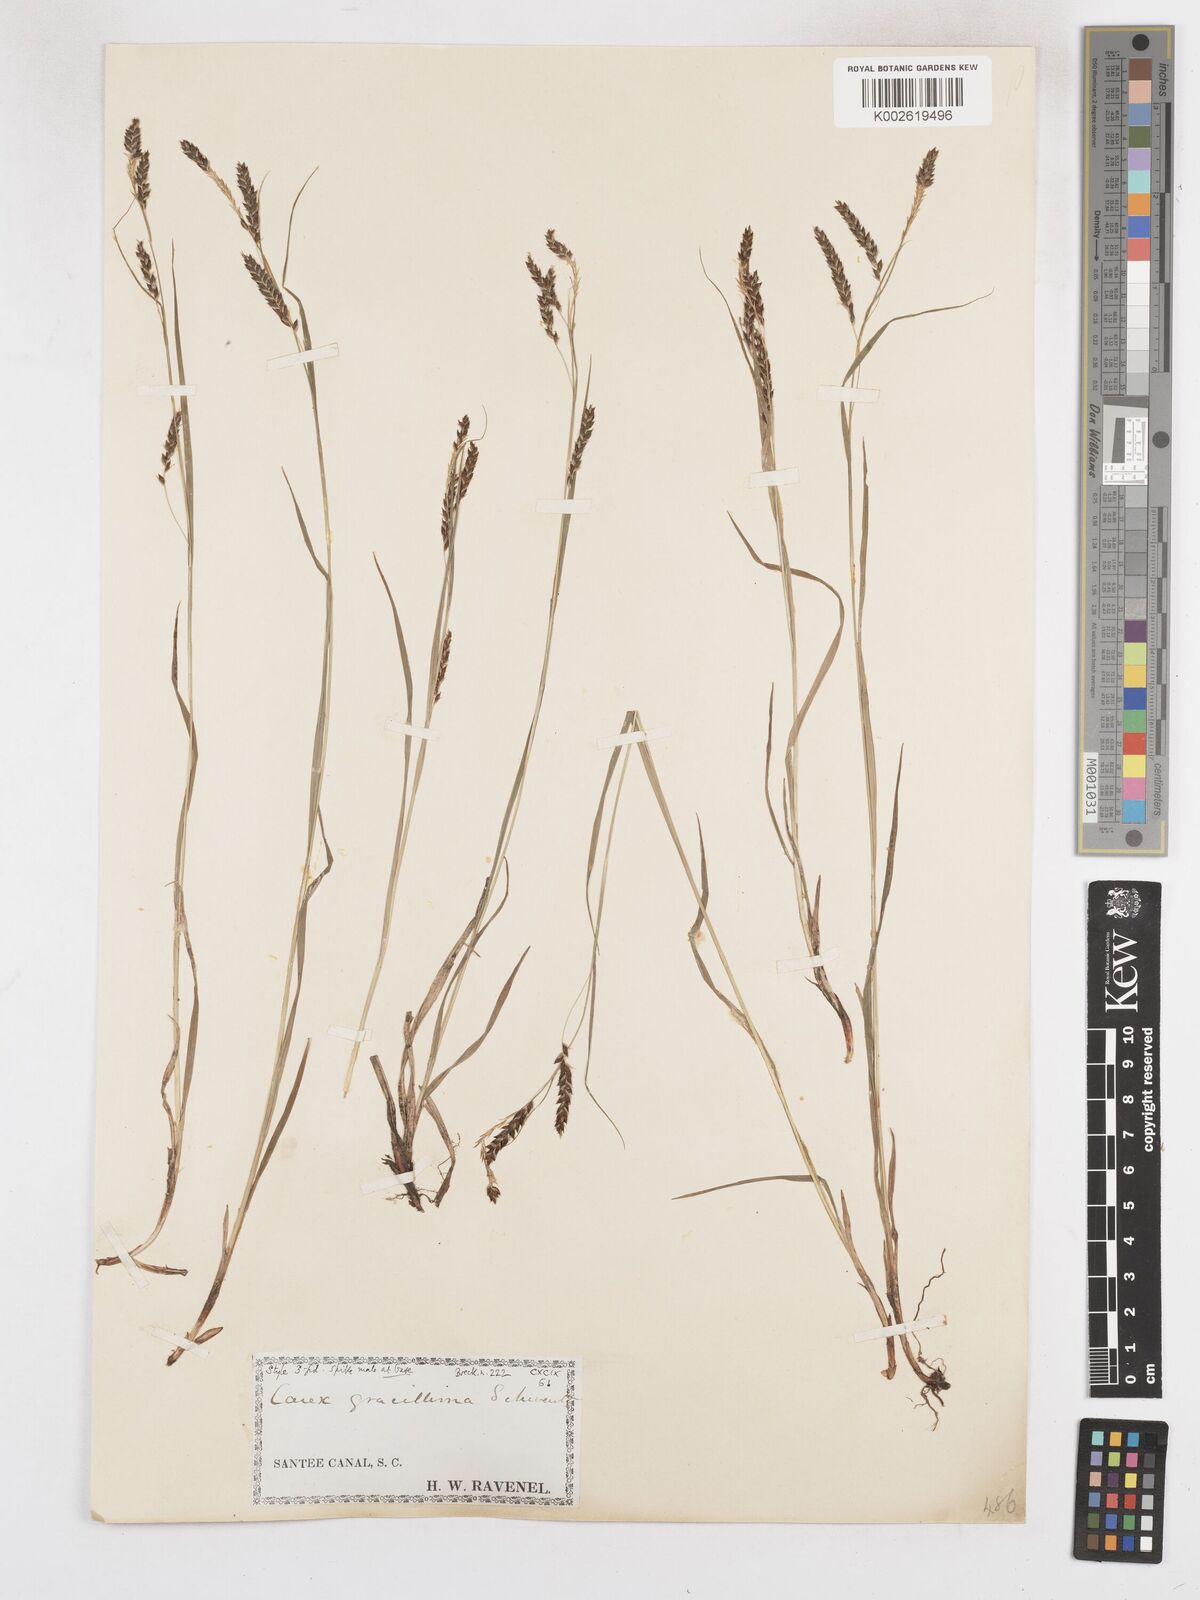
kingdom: Plantae
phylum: Tracheophyta
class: Liliopsida
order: Poales
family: Cyperaceae
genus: Carex
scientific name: Carex gracillima
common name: Graceful sedge
